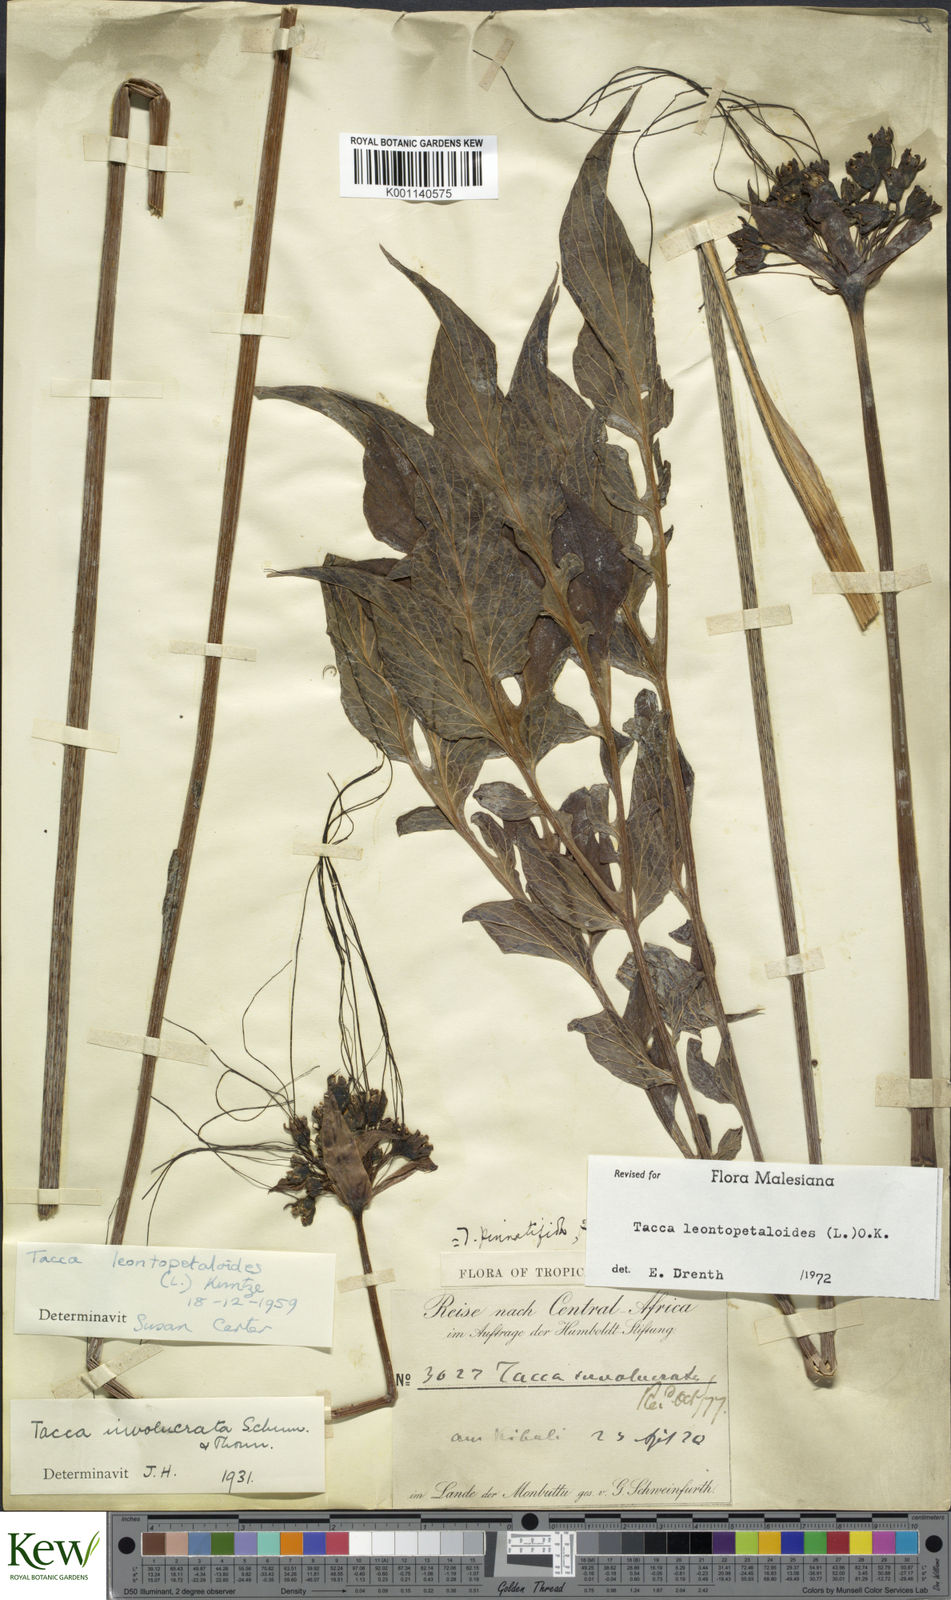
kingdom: Plantae
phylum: Tracheophyta
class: Liliopsida
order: Dioscoreales
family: Dioscoreaceae
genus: Tacca
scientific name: Tacca leontopetaloides
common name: Arrowroot
